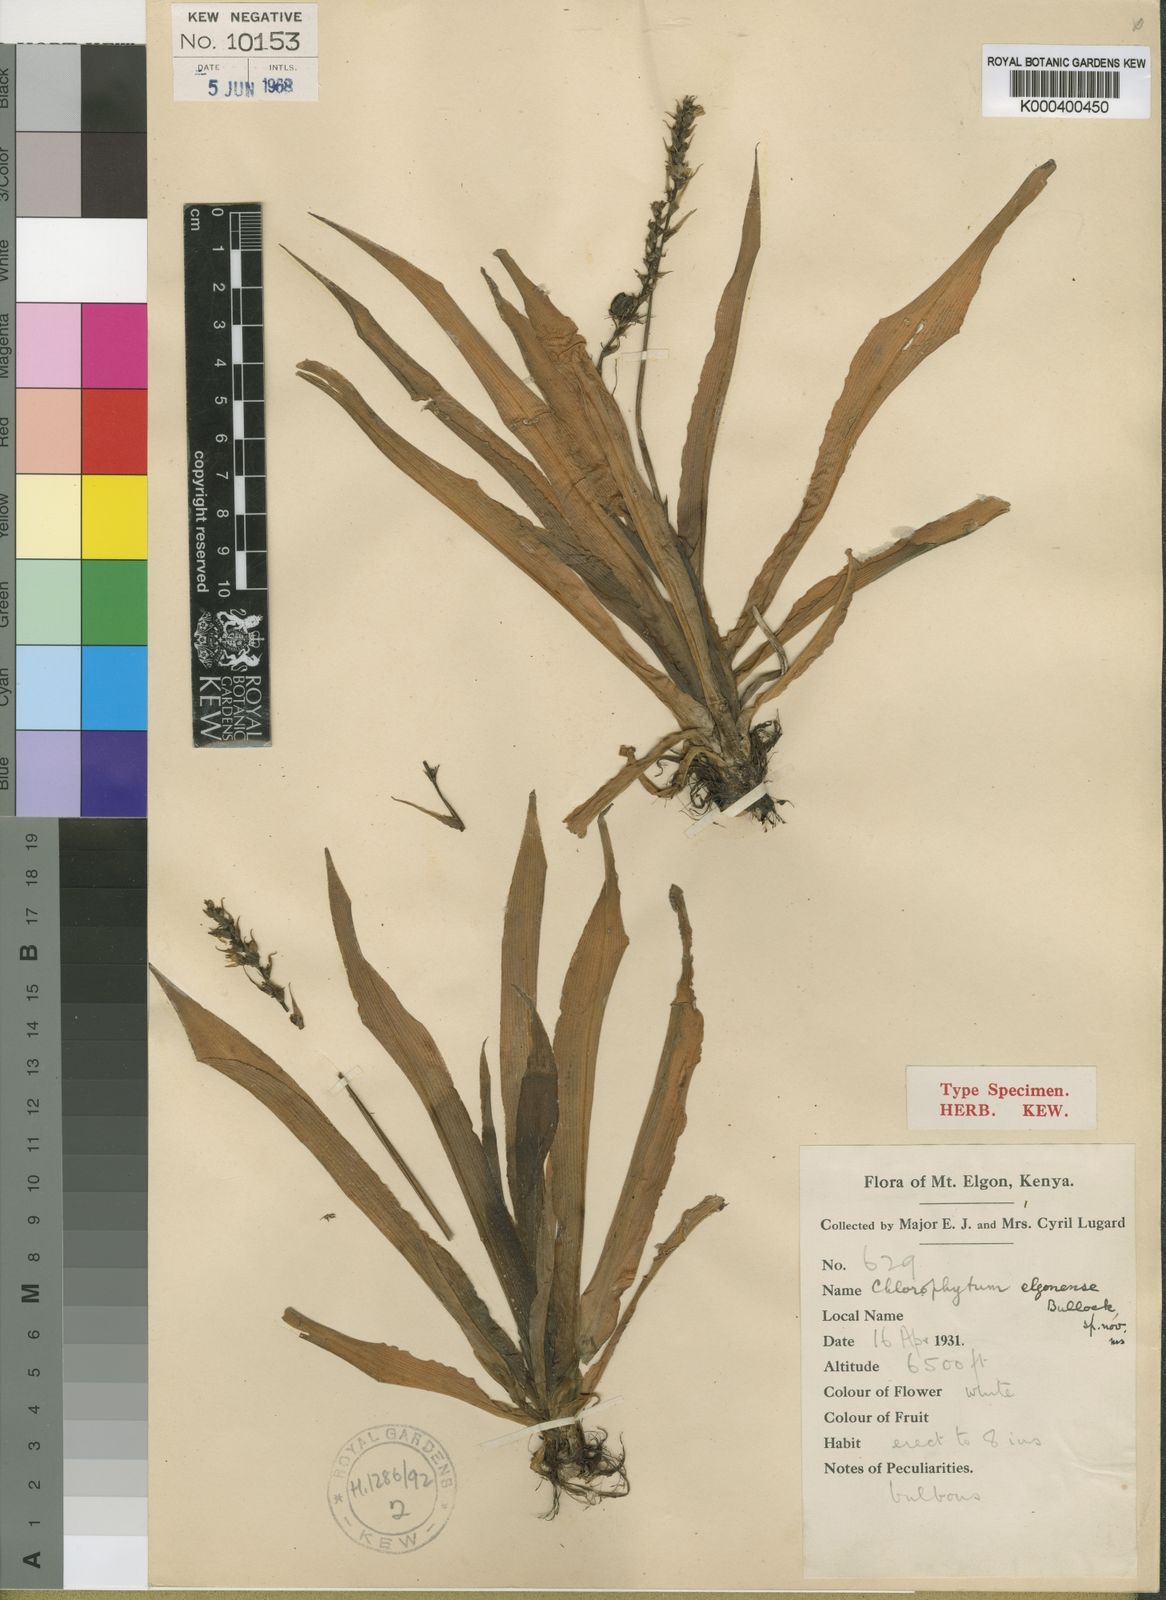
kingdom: Plantae
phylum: Tracheophyta
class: Liliopsida
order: Asparagales
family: Asparagaceae
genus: Chlorophytum
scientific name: Chlorophytum
